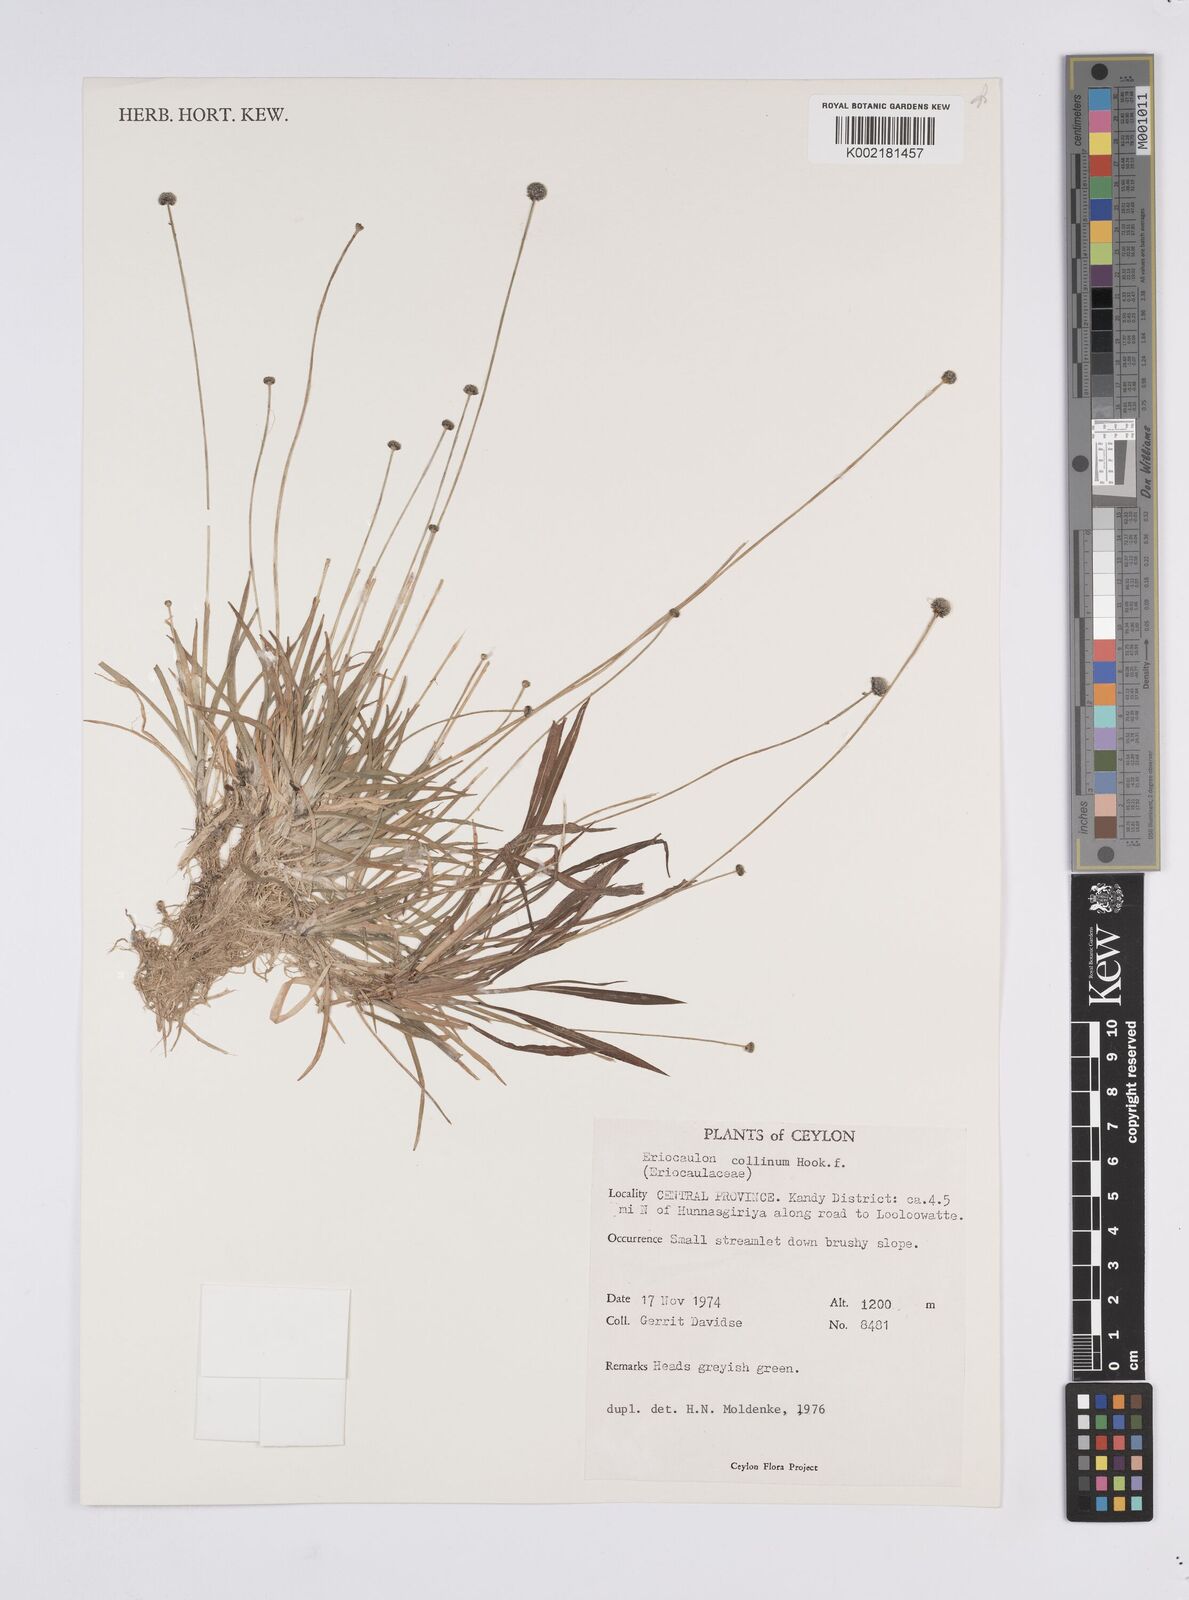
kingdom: Plantae
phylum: Tracheophyta
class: Liliopsida
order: Poales
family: Eriocaulaceae
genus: Eriocaulon
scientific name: Eriocaulon odoratum
